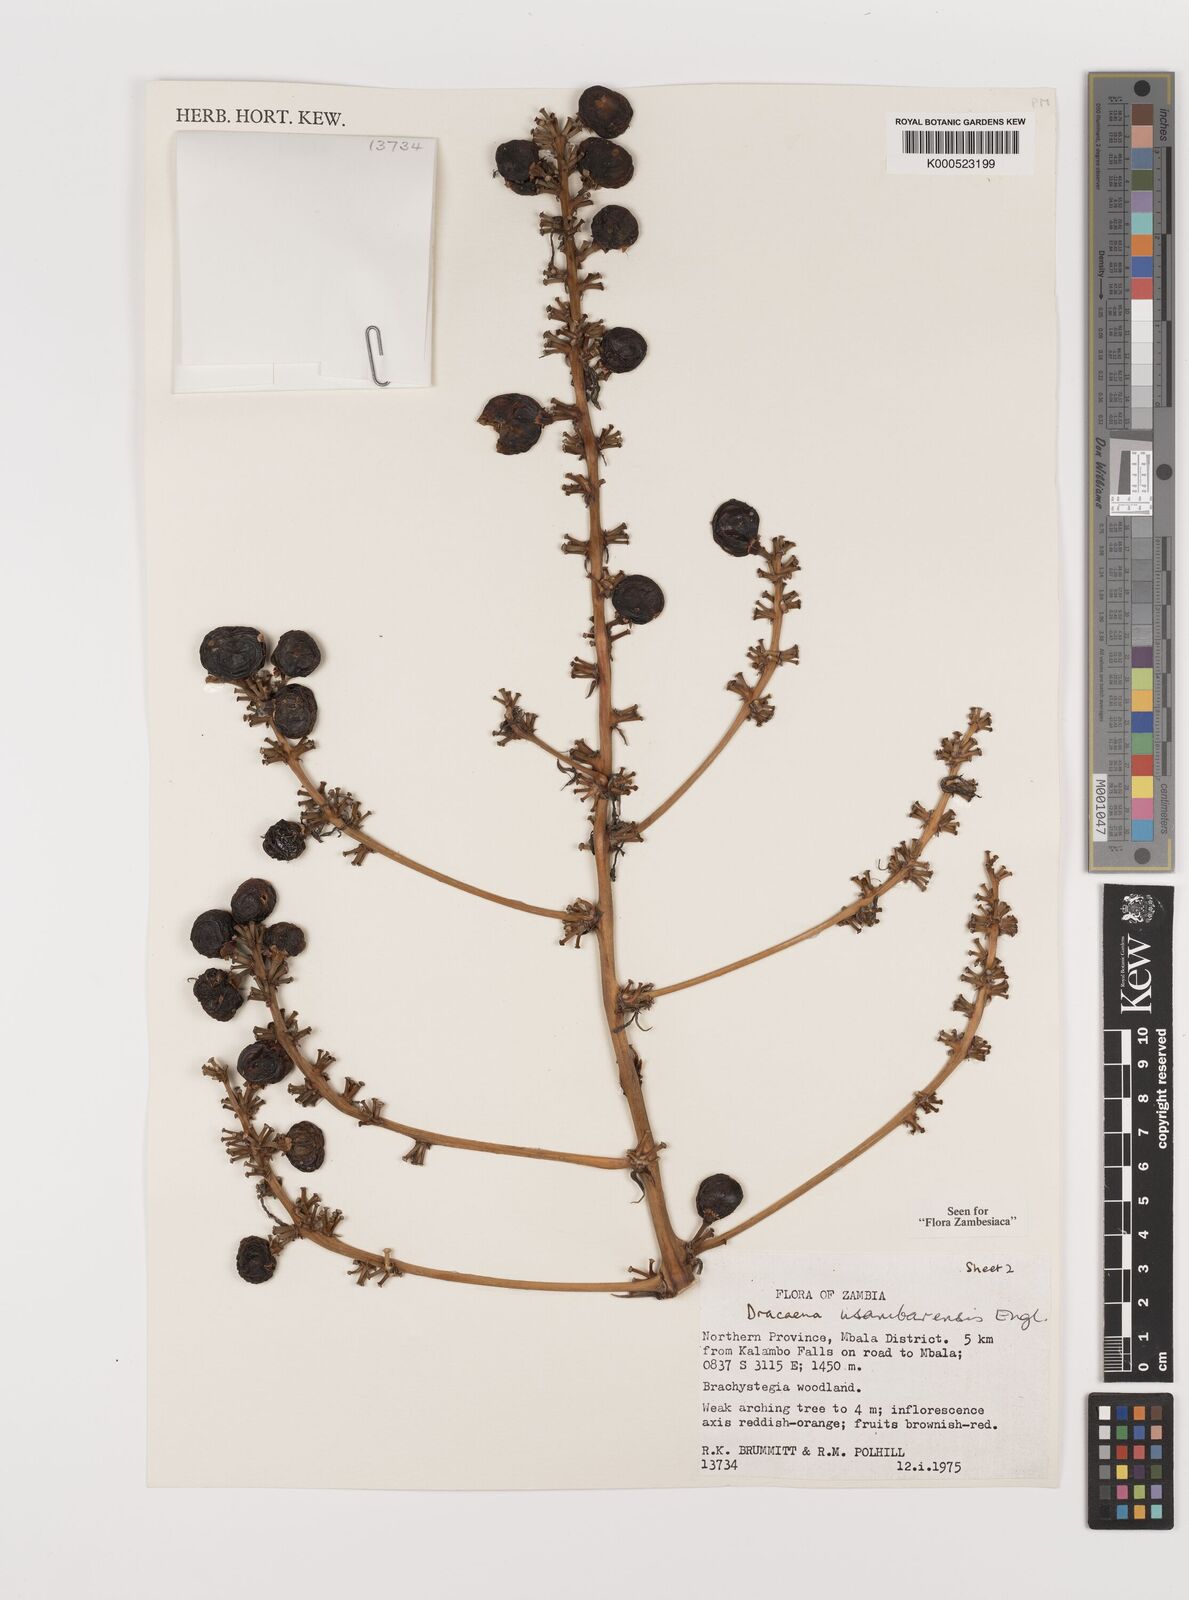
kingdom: Plantae
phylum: Tracheophyta
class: Liliopsida
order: Asparagales
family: Asparagaceae
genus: Dracaena
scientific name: Dracaena usambarensis
